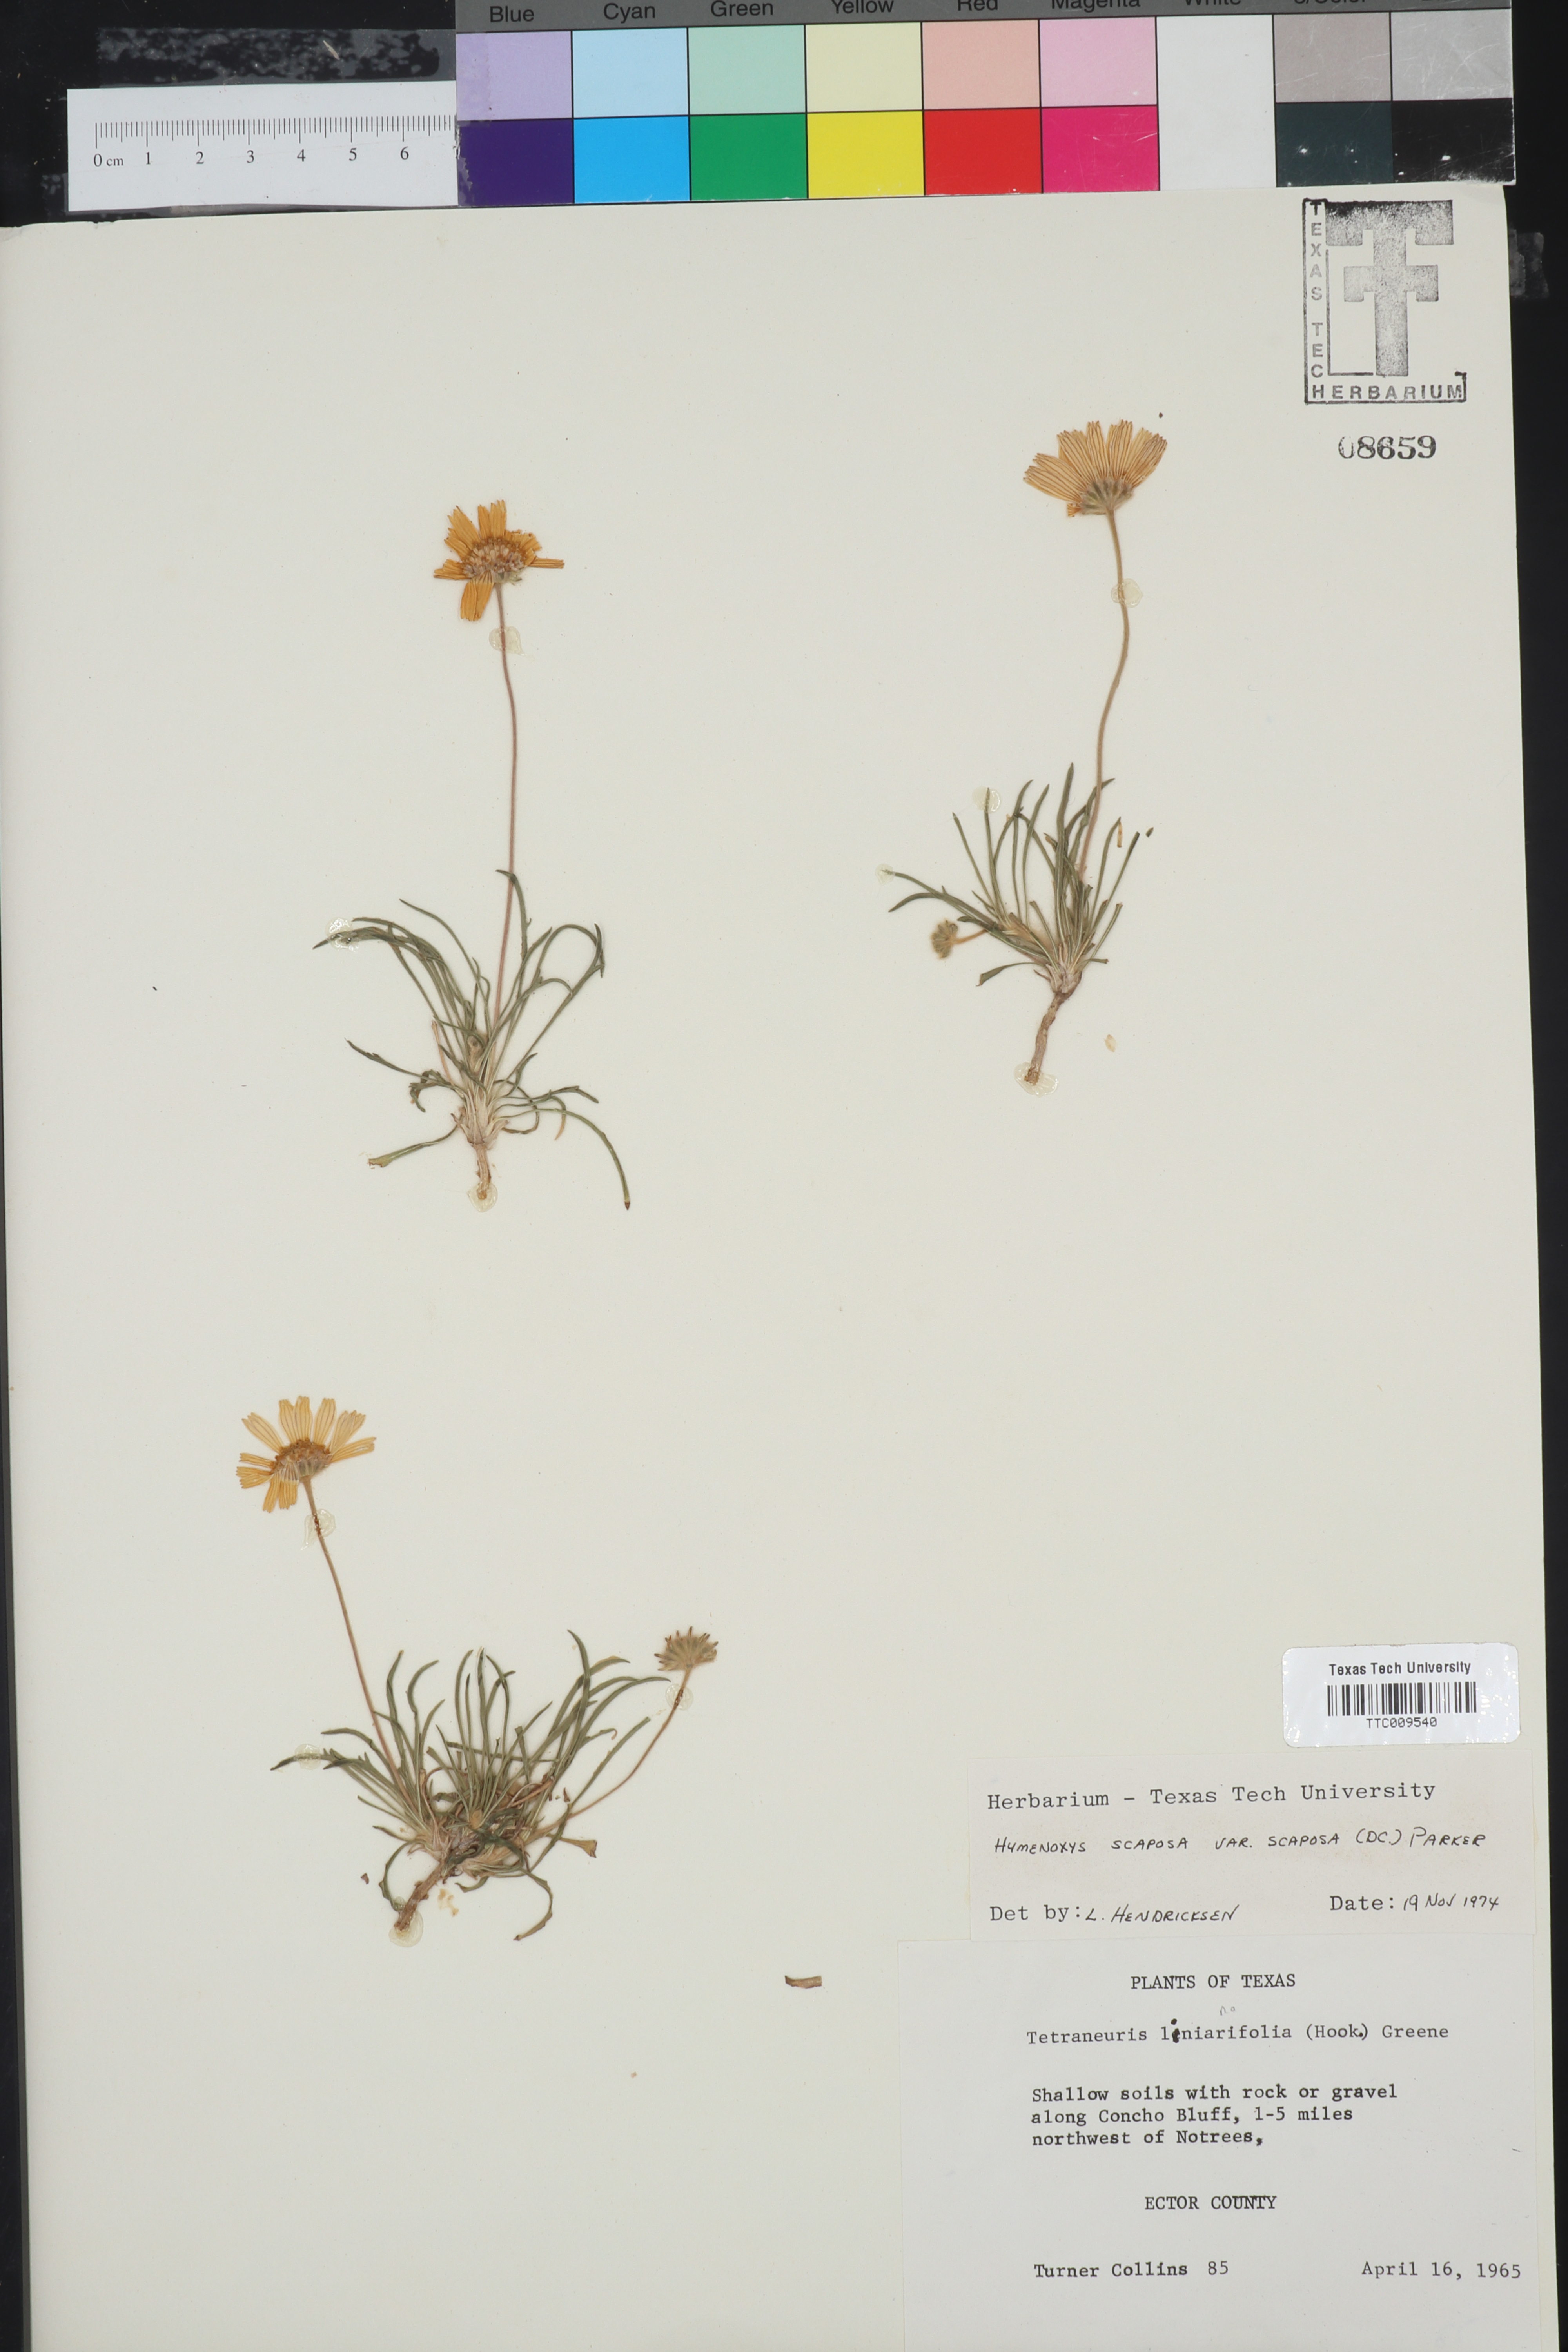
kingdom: Plantae
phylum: Tracheophyta
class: Magnoliopsida
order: Asterales
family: Asteraceae
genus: Tetraneuris
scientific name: Tetraneuris scaposa
